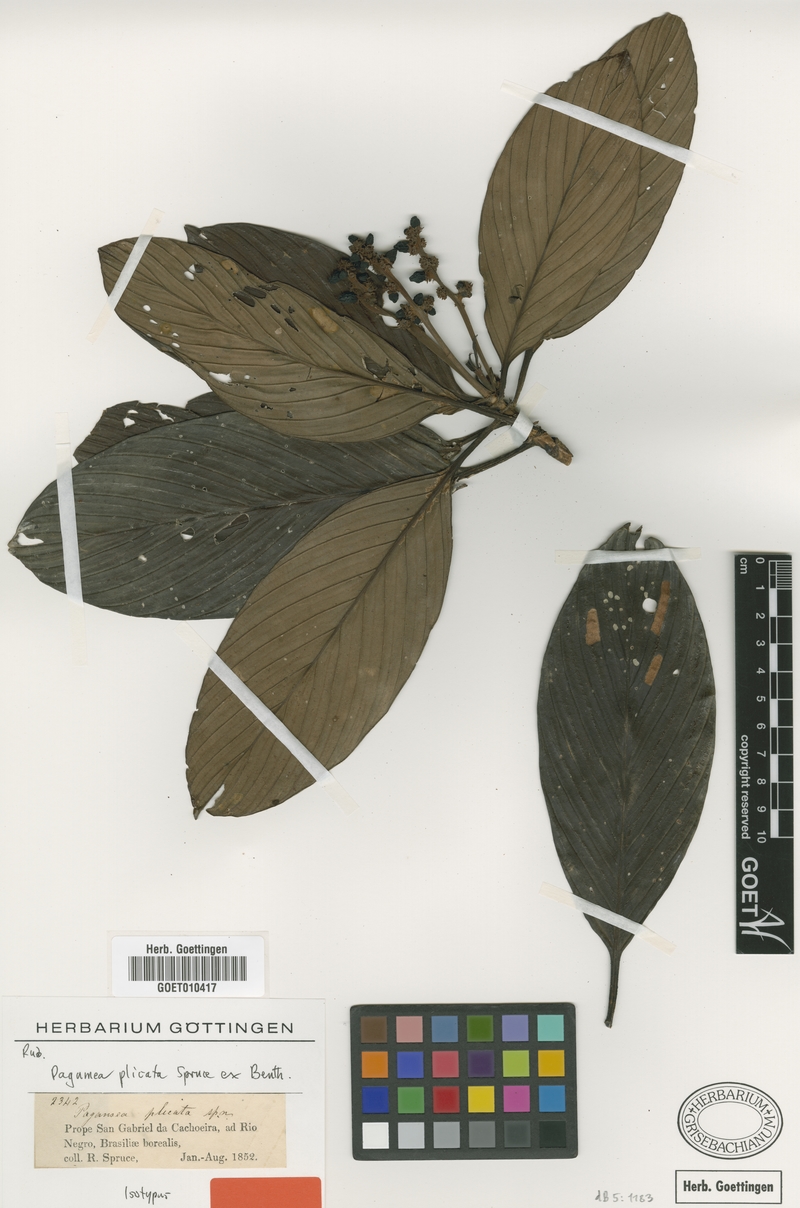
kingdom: Plantae
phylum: Tracheophyta
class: Magnoliopsida
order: Gentianales
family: Rubiaceae
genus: Pagamea
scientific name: Pagamea plicata
